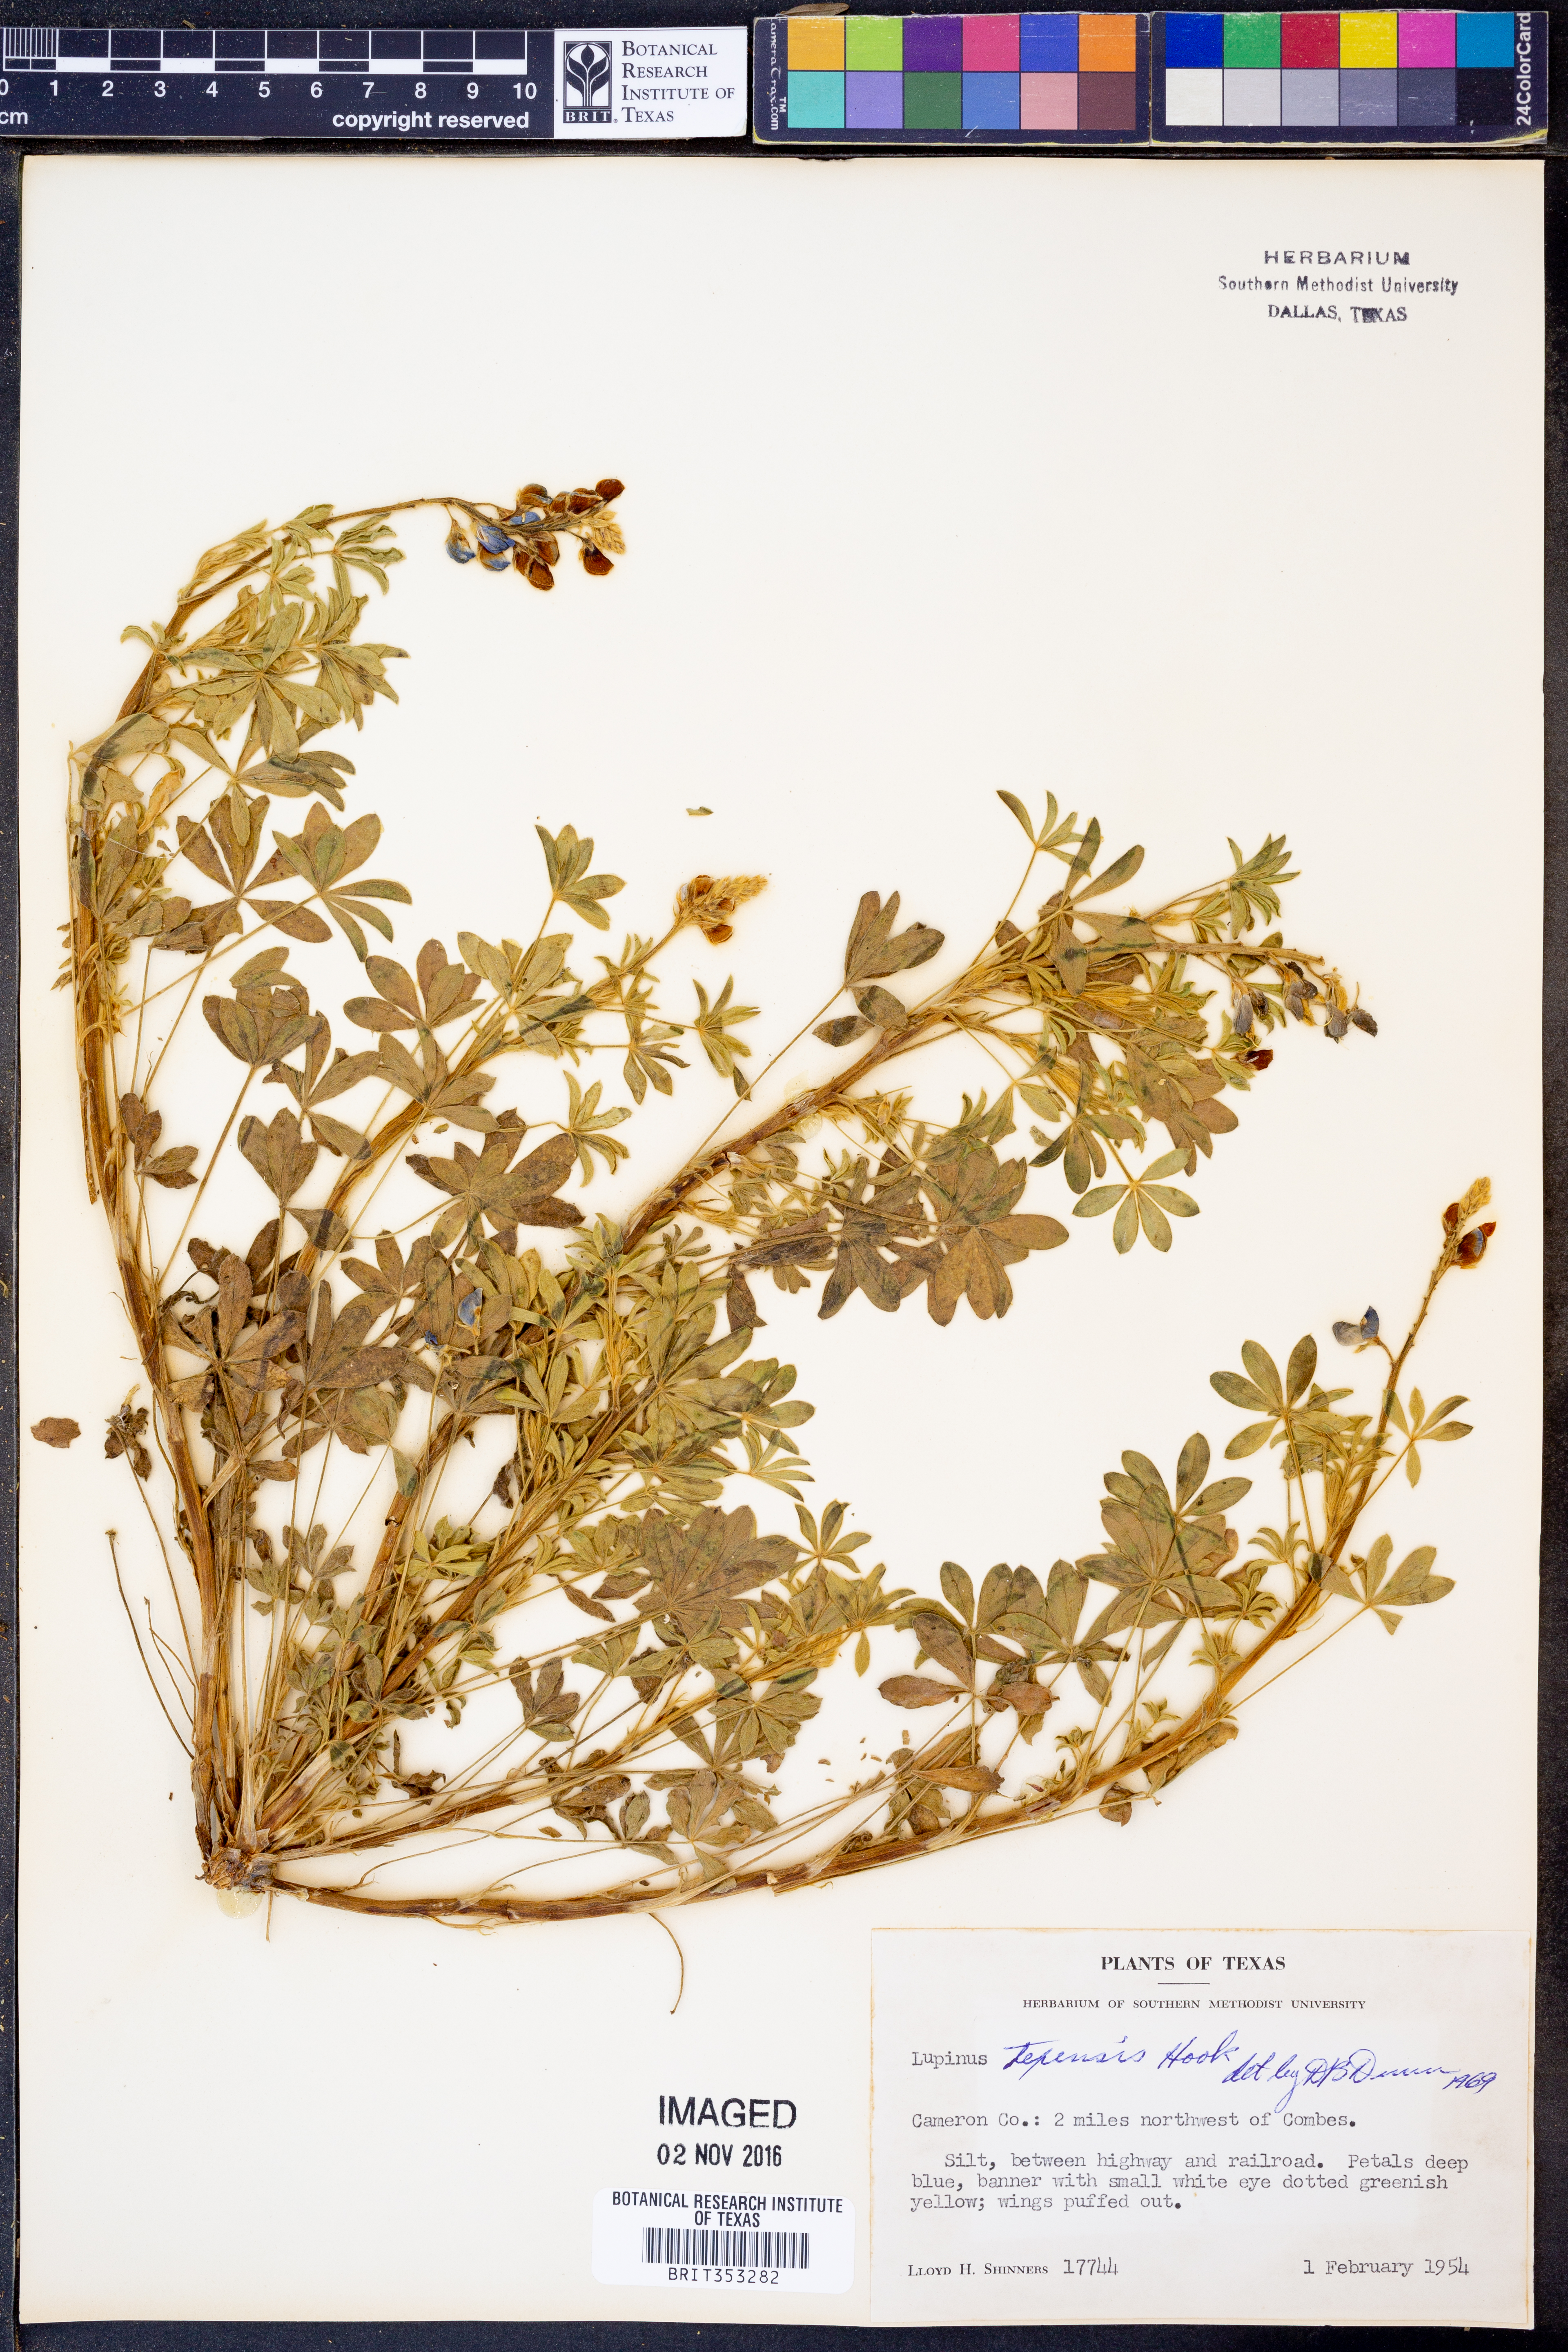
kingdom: Plantae
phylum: Tracheophyta
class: Magnoliopsida
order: Fabales
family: Fabaceae
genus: Lupinus
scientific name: Lupinus texensis
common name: Texas bluebonnet
